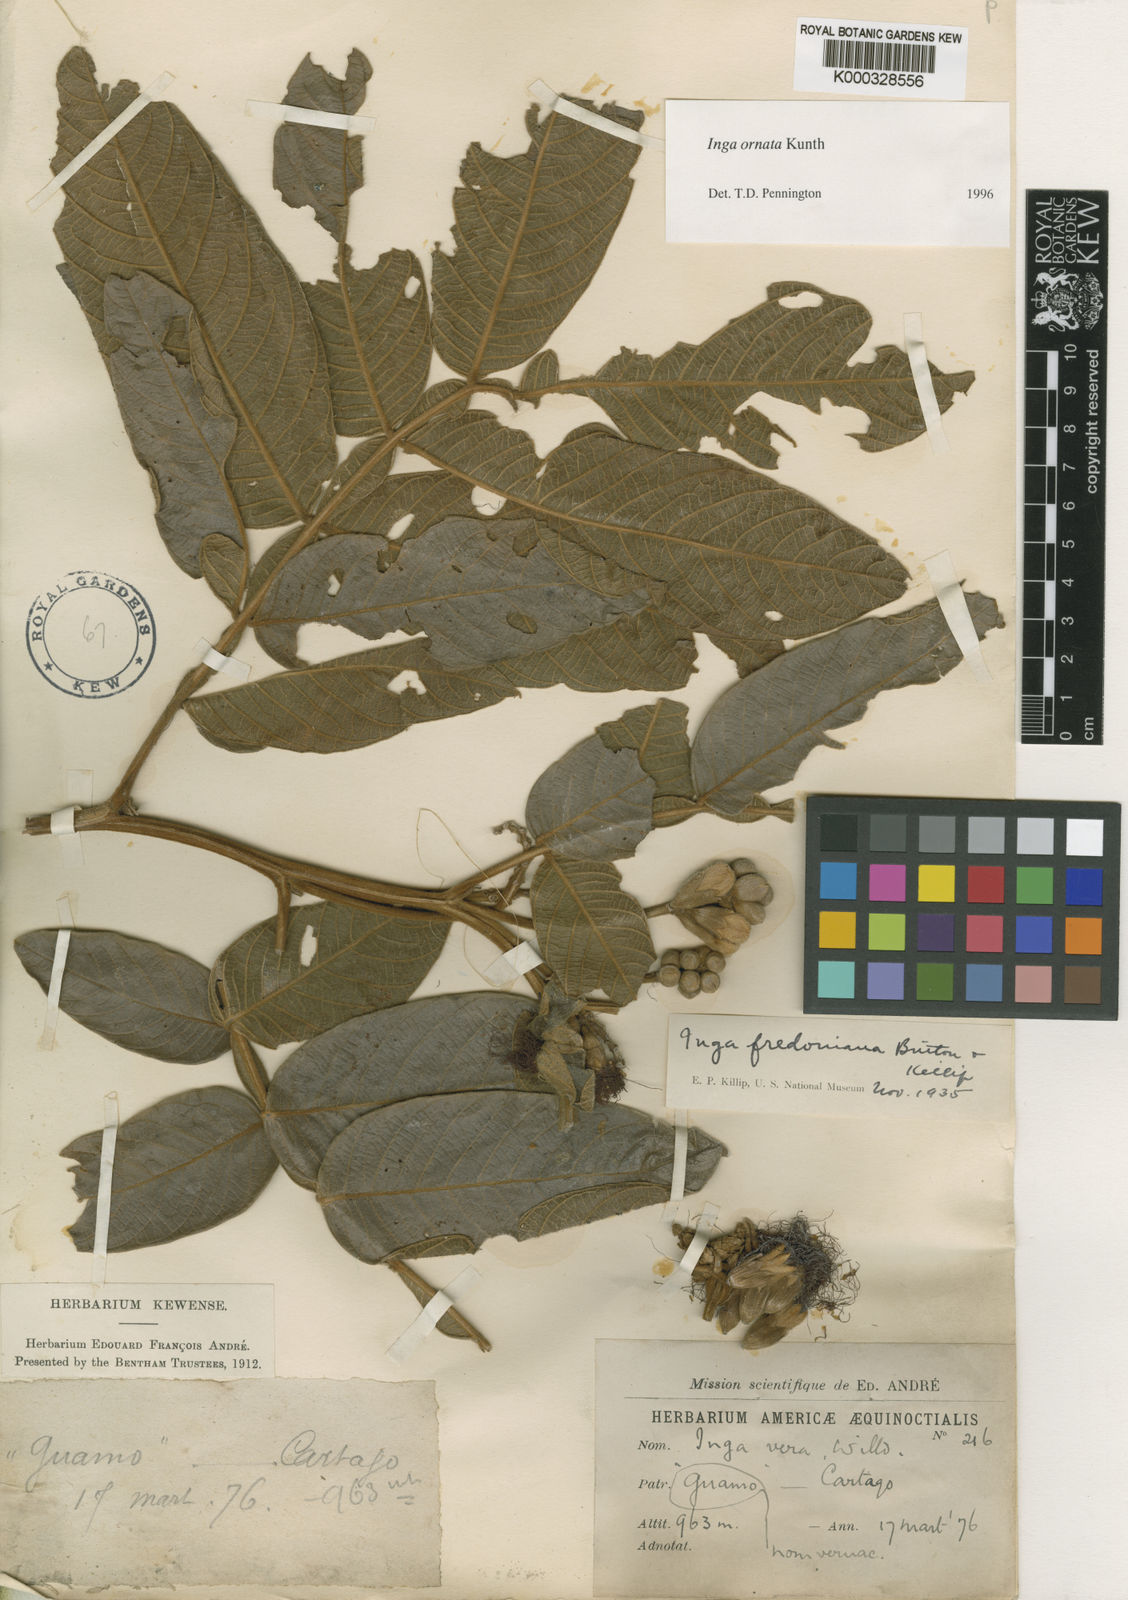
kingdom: Plantae
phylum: Tracheophyta
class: Magnoliopsida
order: Fabales
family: Fabaceae
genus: Inga
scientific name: Inga ornata
